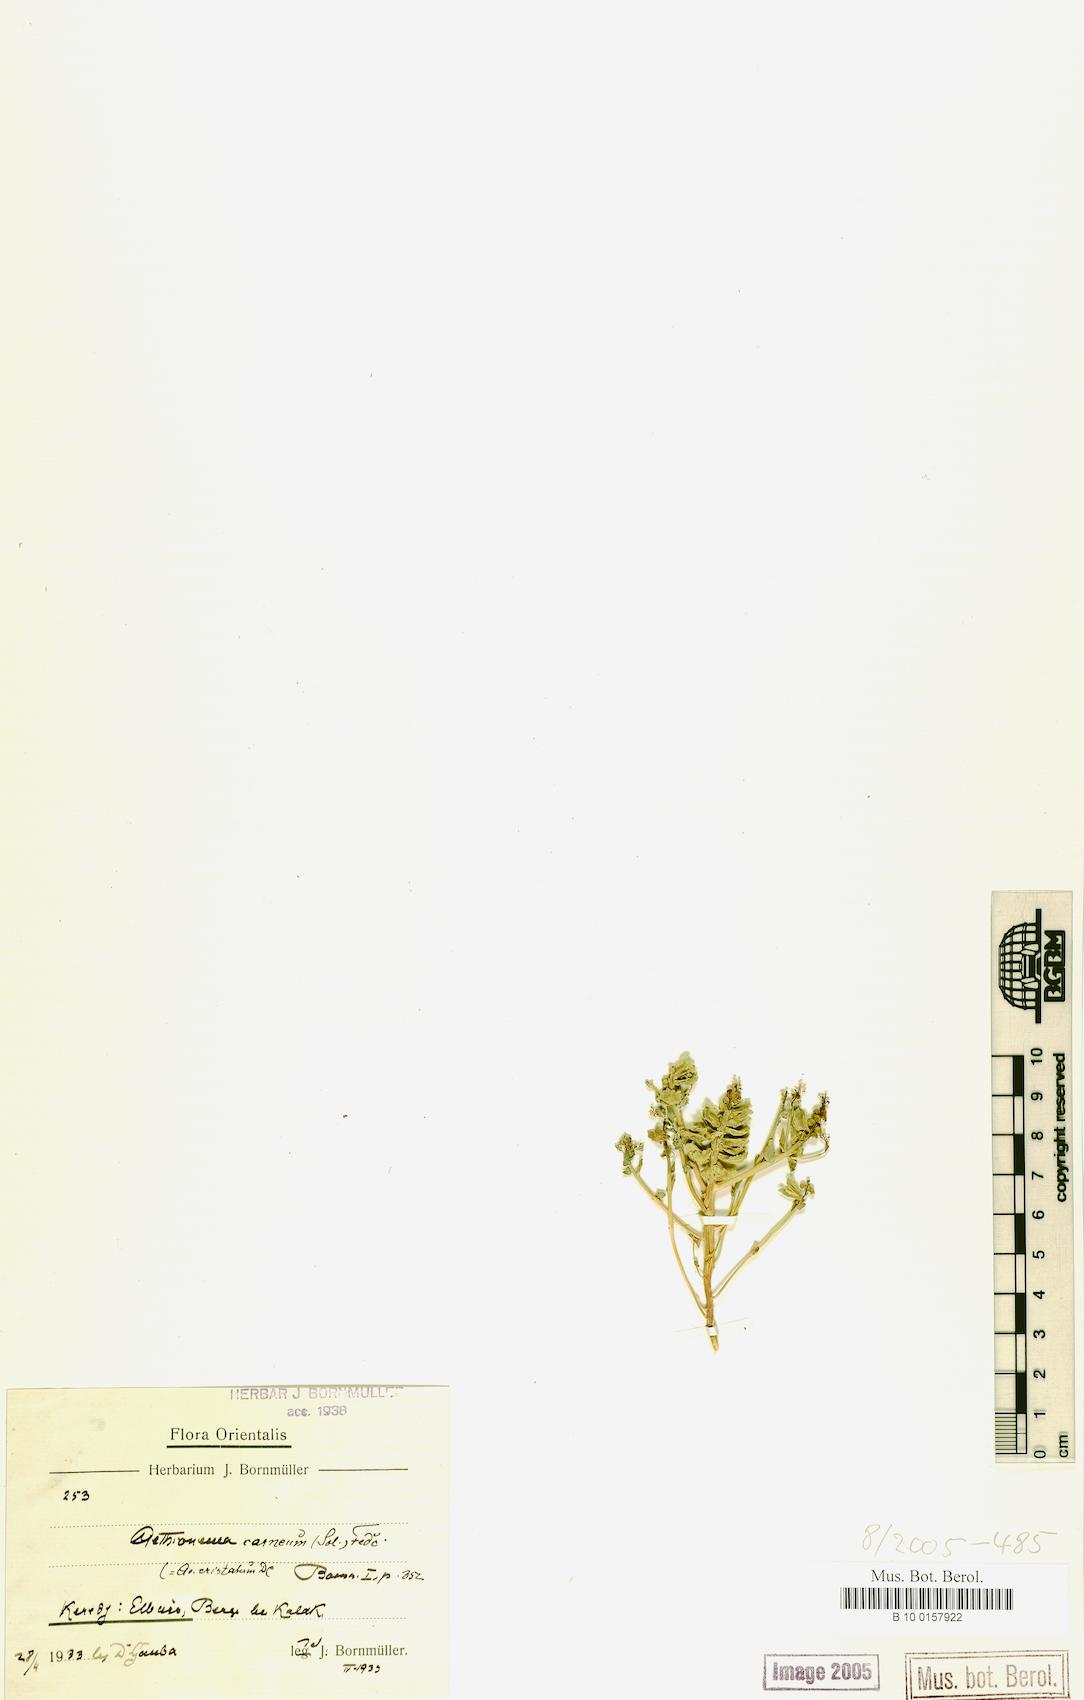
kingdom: Plantae
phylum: Tracheophyta
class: Magnoliopsida
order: Brassicales
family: Brassicaceae
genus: Aethionema
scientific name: Aethionema carneum
